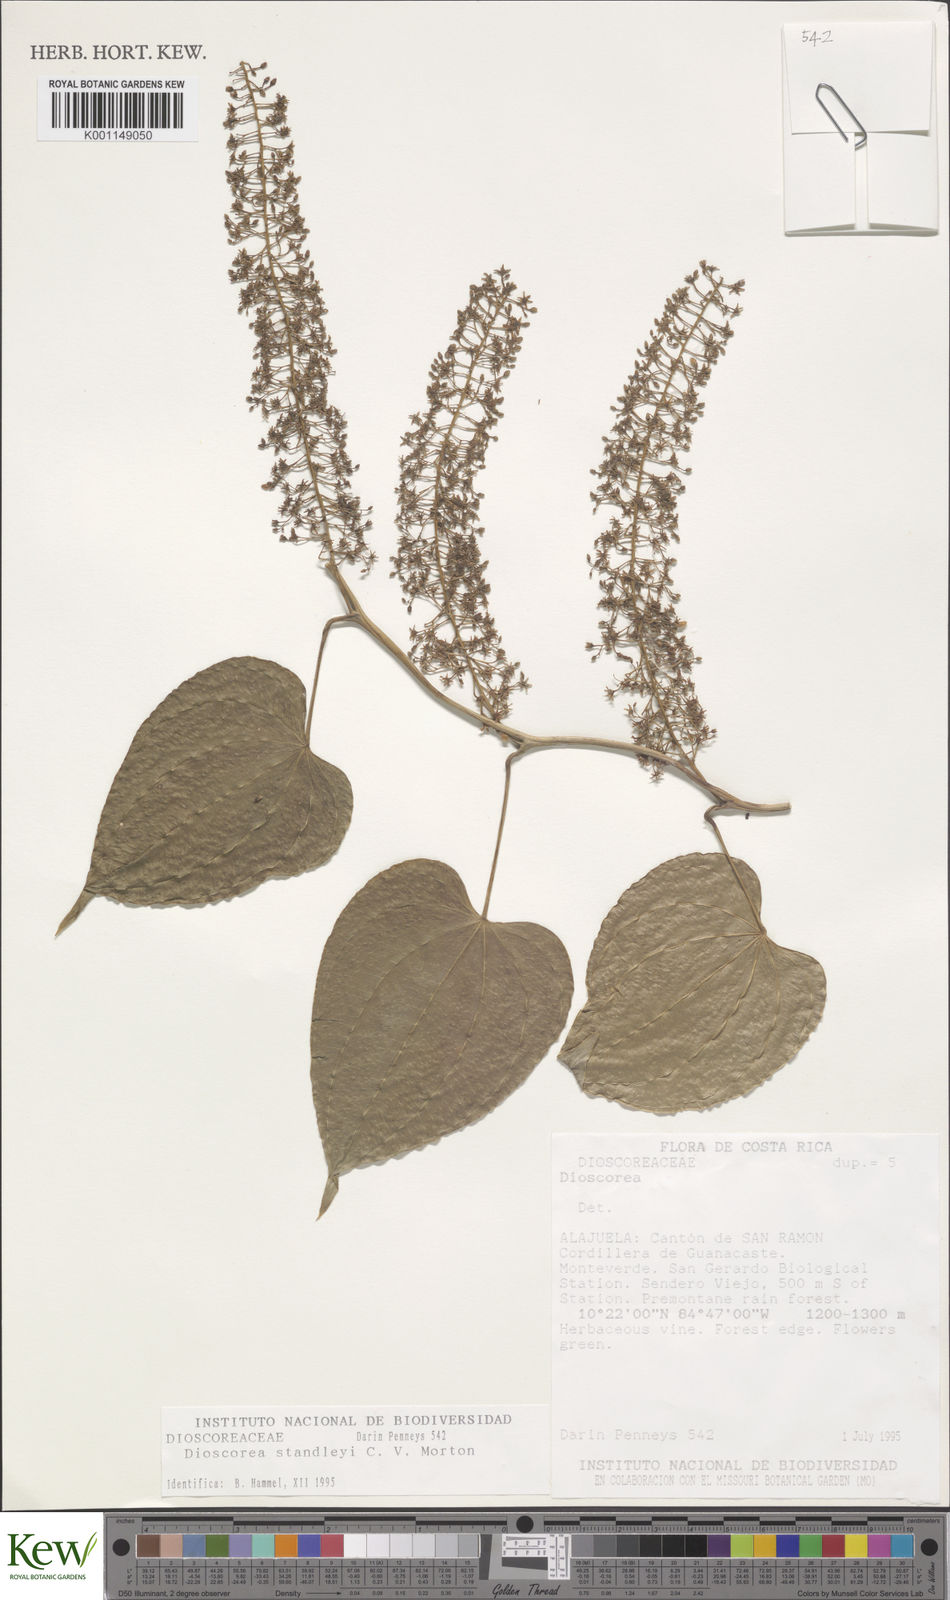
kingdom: Plantae
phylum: Tracheophyta
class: Liliopsida
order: Dioscoreales
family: Dioscoreaceae
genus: Dioscorea
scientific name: Dioscorea standleyi
